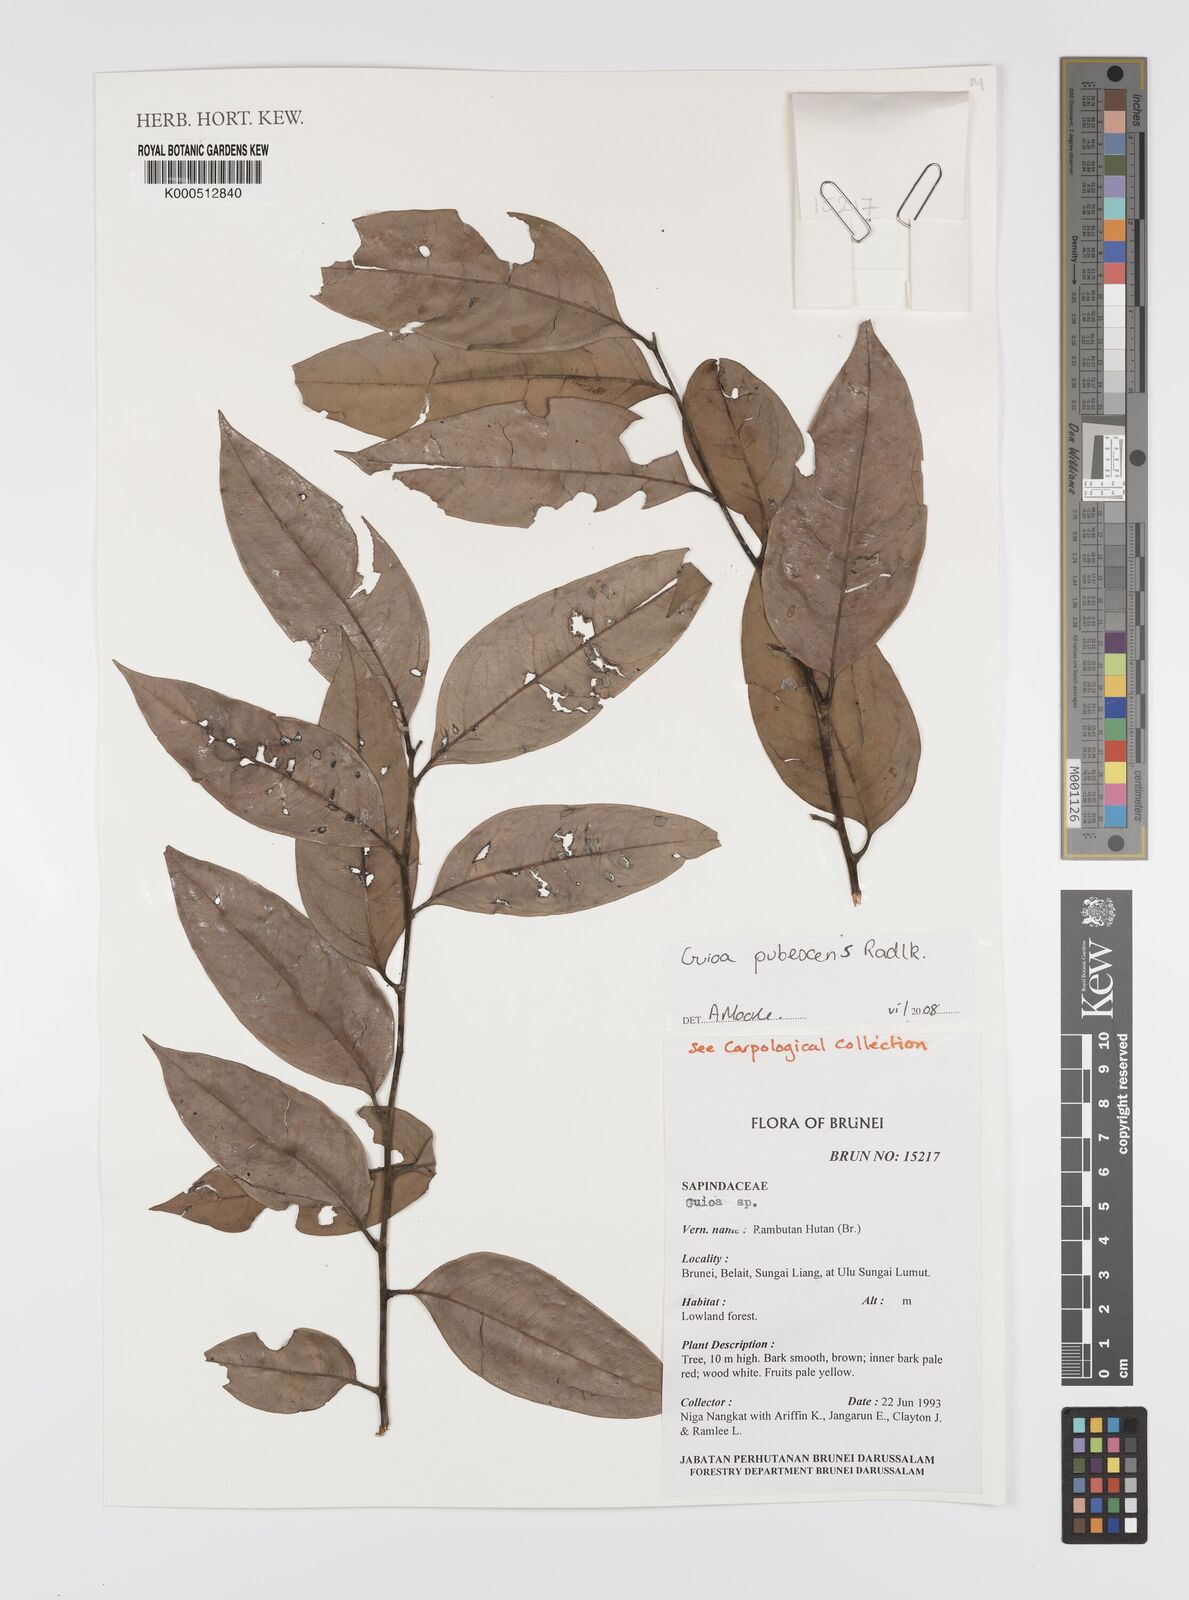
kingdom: Plantae
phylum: Tracheophyta
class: Magnoliopsida
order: Sapindales
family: Sapindaceae
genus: Guioa
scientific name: Guioa pubescens
